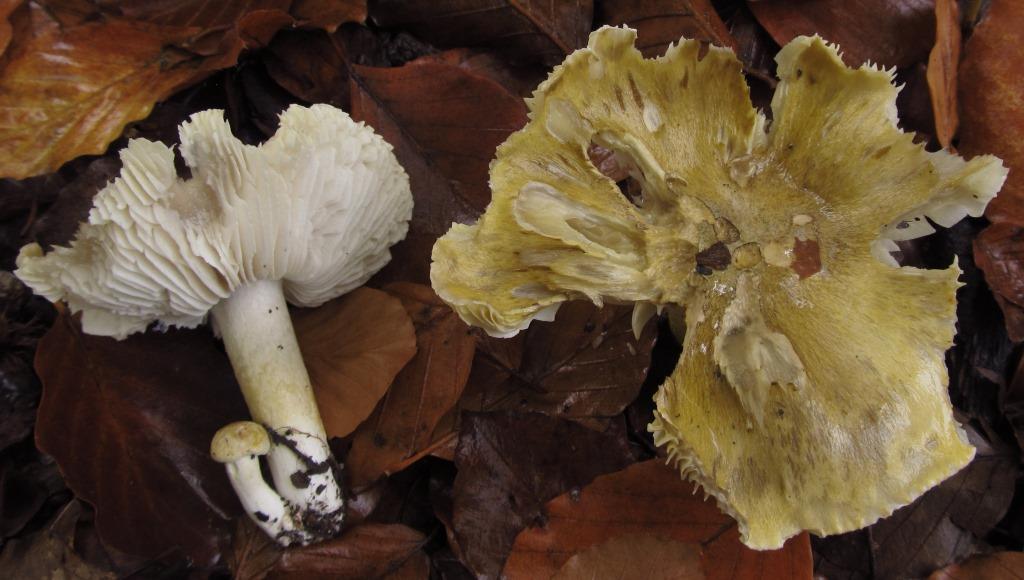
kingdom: Fungi
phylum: Basidiomycota
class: Agaricomycetes
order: Agaricales
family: Tricholomataceae
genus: Tricholoma
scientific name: Tricholoma sejunctum
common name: grøngul ridderhat
